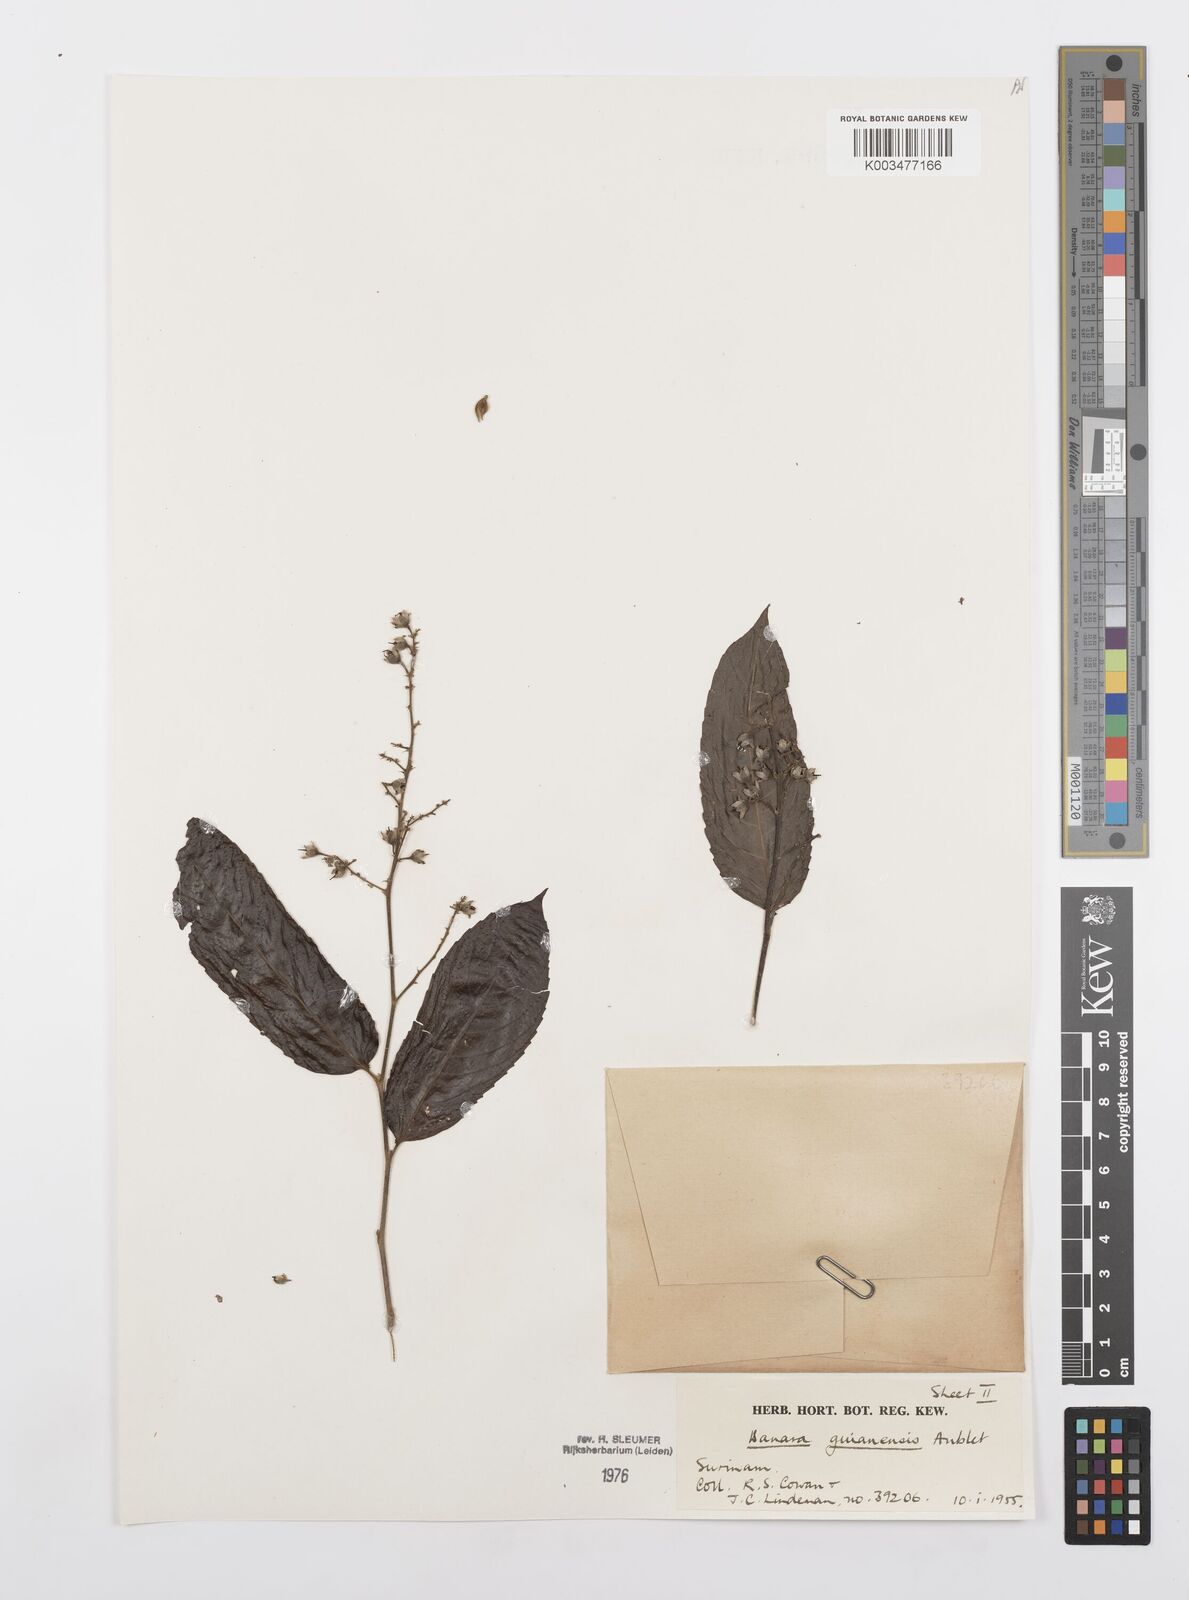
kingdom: Plantae
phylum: Tracheophyta
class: Magnoliopsida
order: Malpighiales
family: Salicaceae
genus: Banara
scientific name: Banara guianensis
